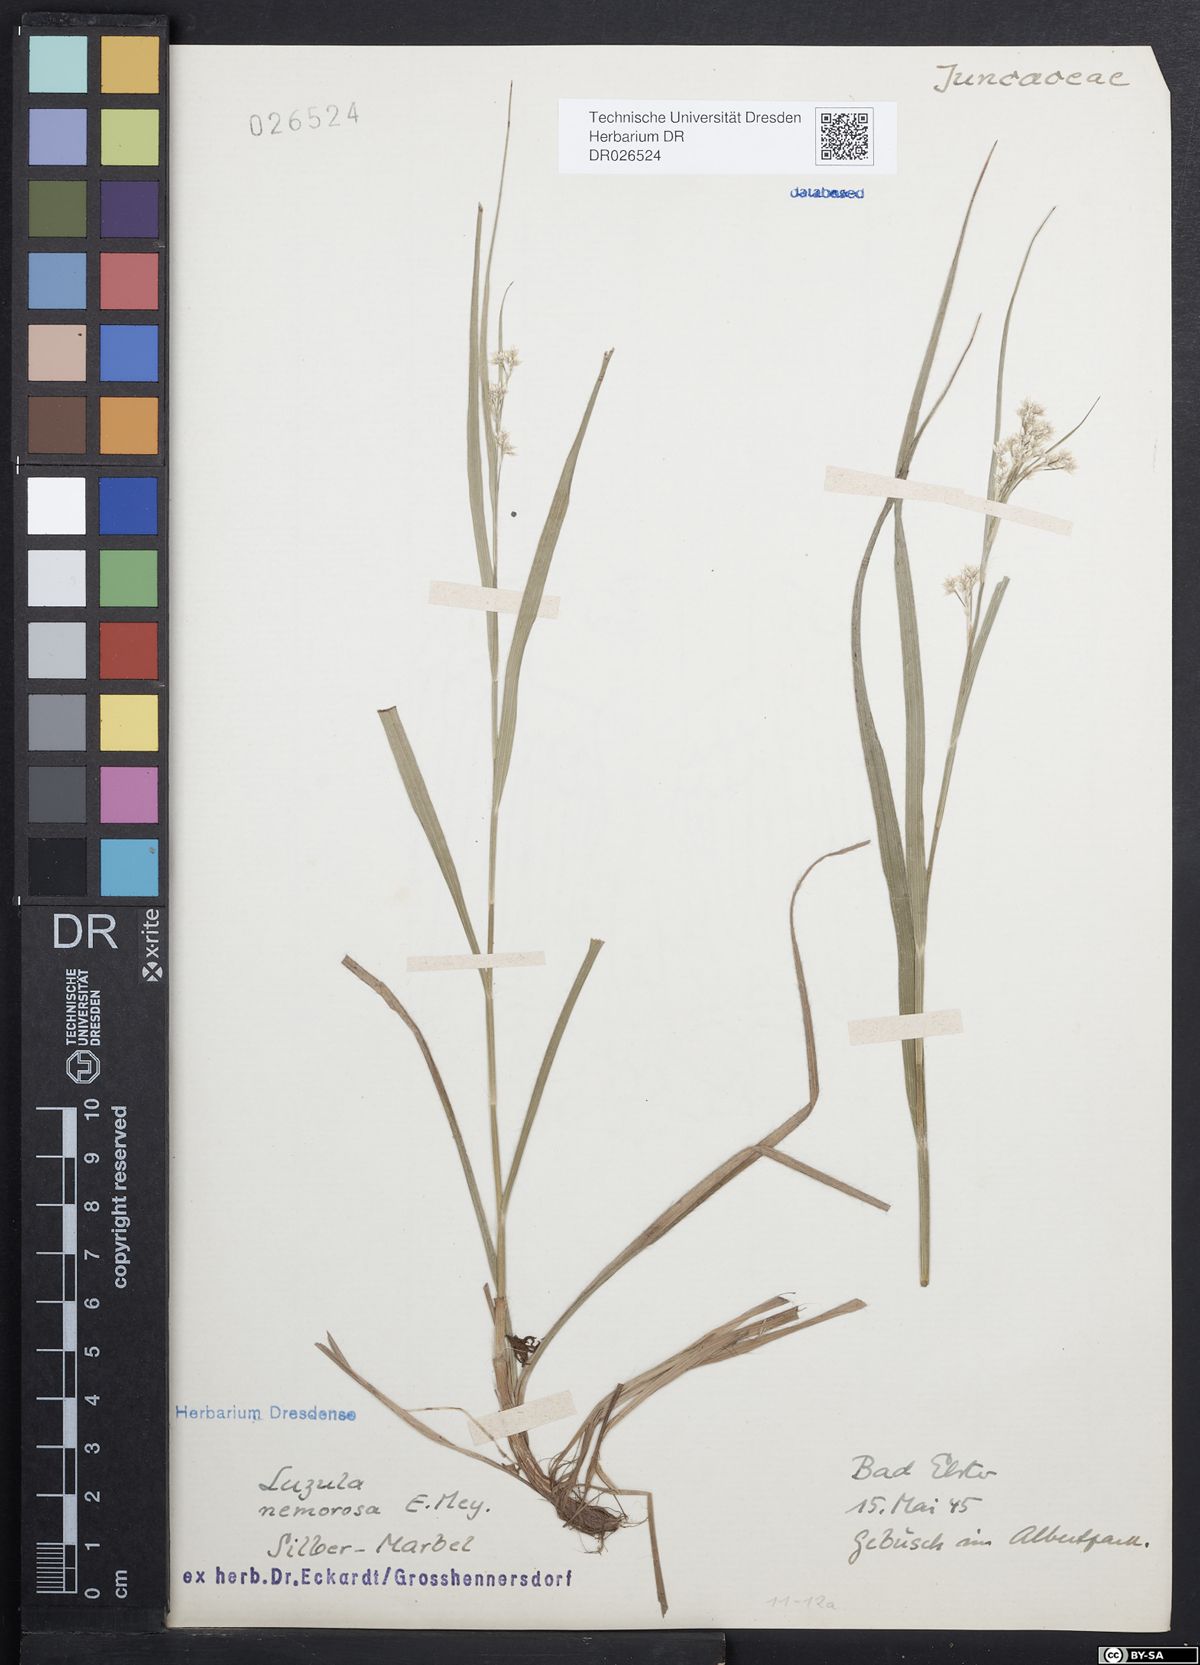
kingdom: Plantae
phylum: Tracheophyta
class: Liliopsida
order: Poales
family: Juncaceae
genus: Luzula
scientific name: Luzula luzuloides
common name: White wood-rush
